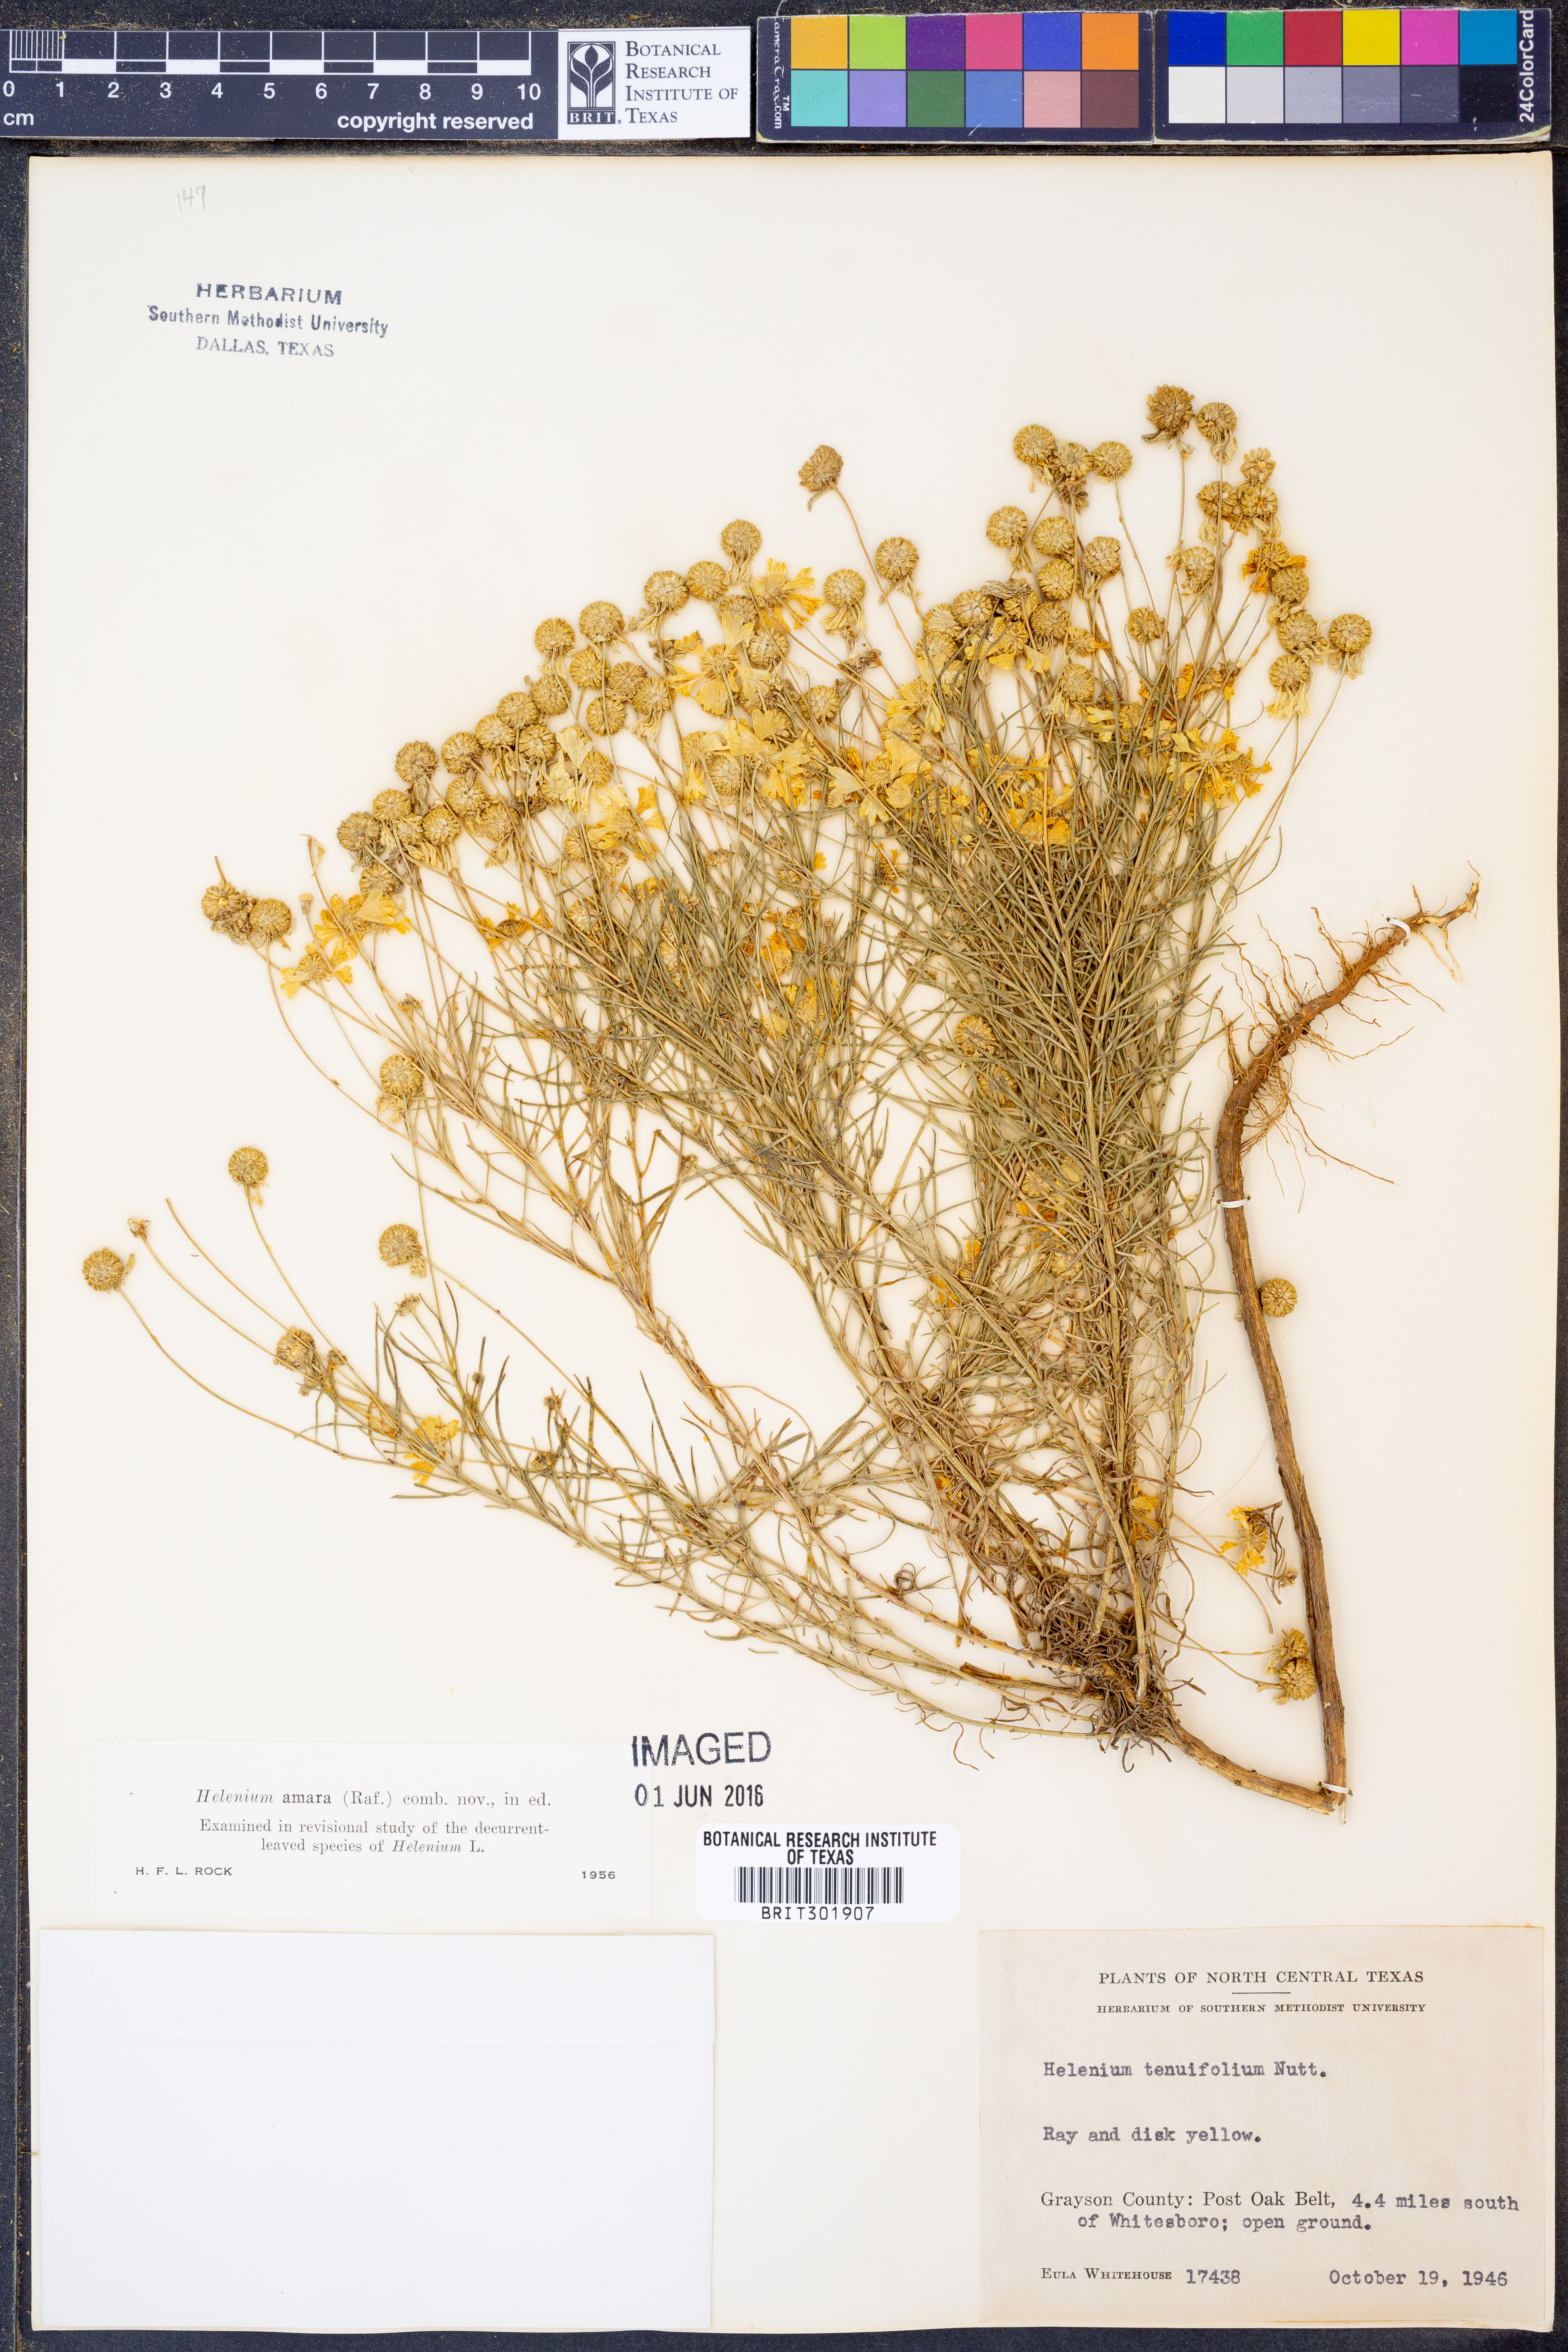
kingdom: Plantae
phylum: Tracheophyta
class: Magnoliopsida
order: Asterales
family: Asteraceae
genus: Helenium
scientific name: Helenium amarum
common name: Bitter sneezeweed
